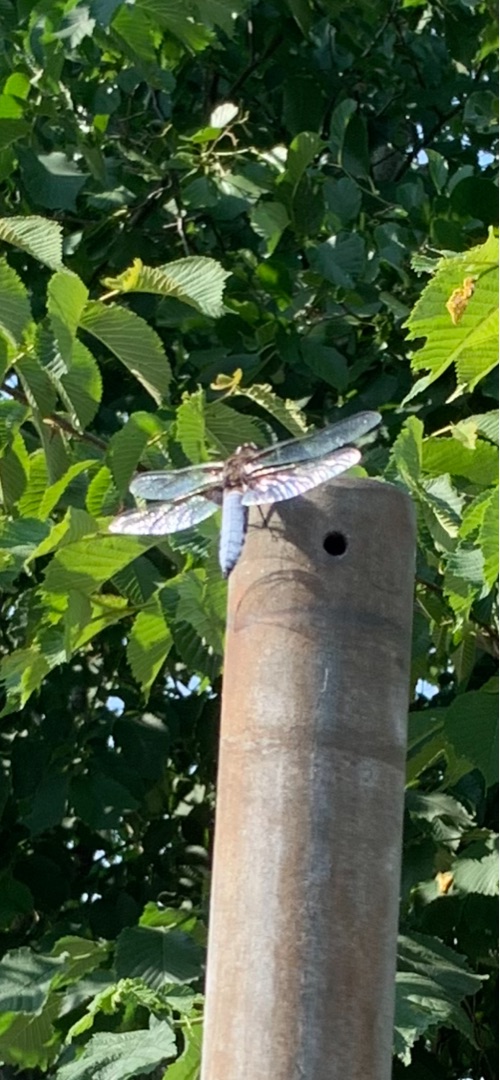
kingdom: Animalia
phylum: Arthropoda
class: Insecta
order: Odonata
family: Libellulidae
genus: Libellula
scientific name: Libellula depressa
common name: Blå libel
